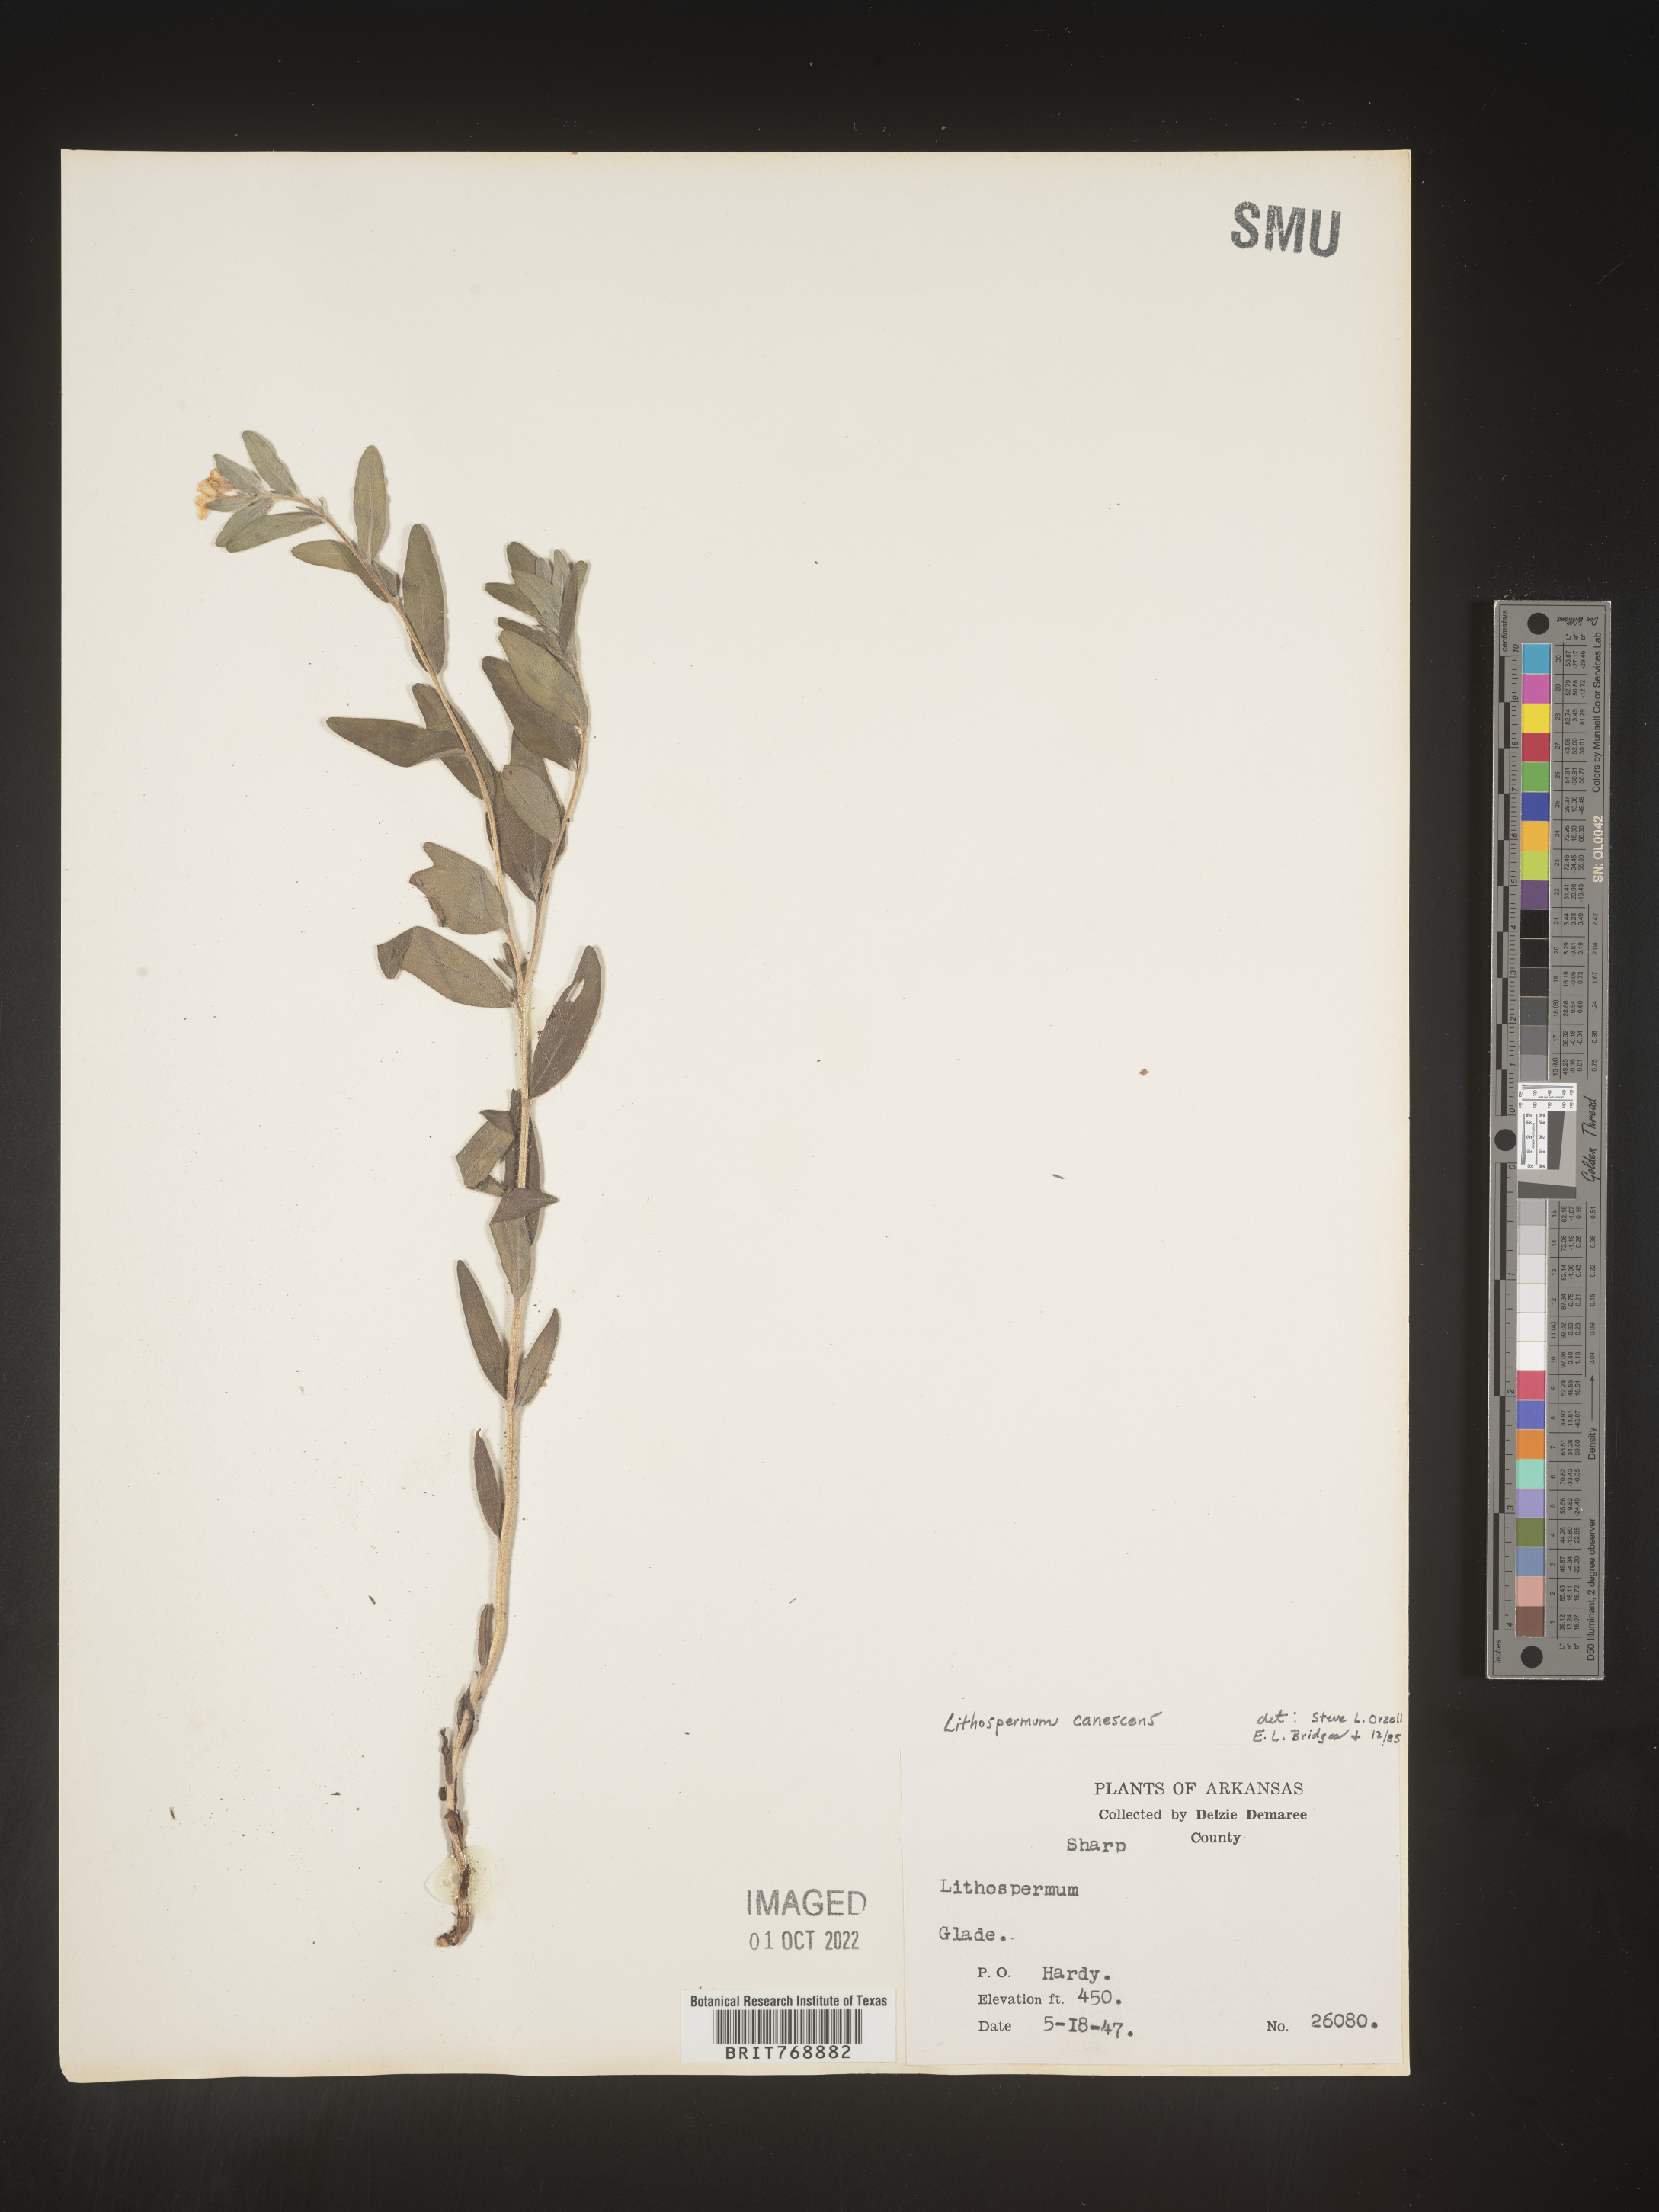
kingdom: Plantae
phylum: Tracheophyta
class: Magnoliopsida
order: Boraginales
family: Boraginaceae
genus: Lithospermum
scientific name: Lithospermum
